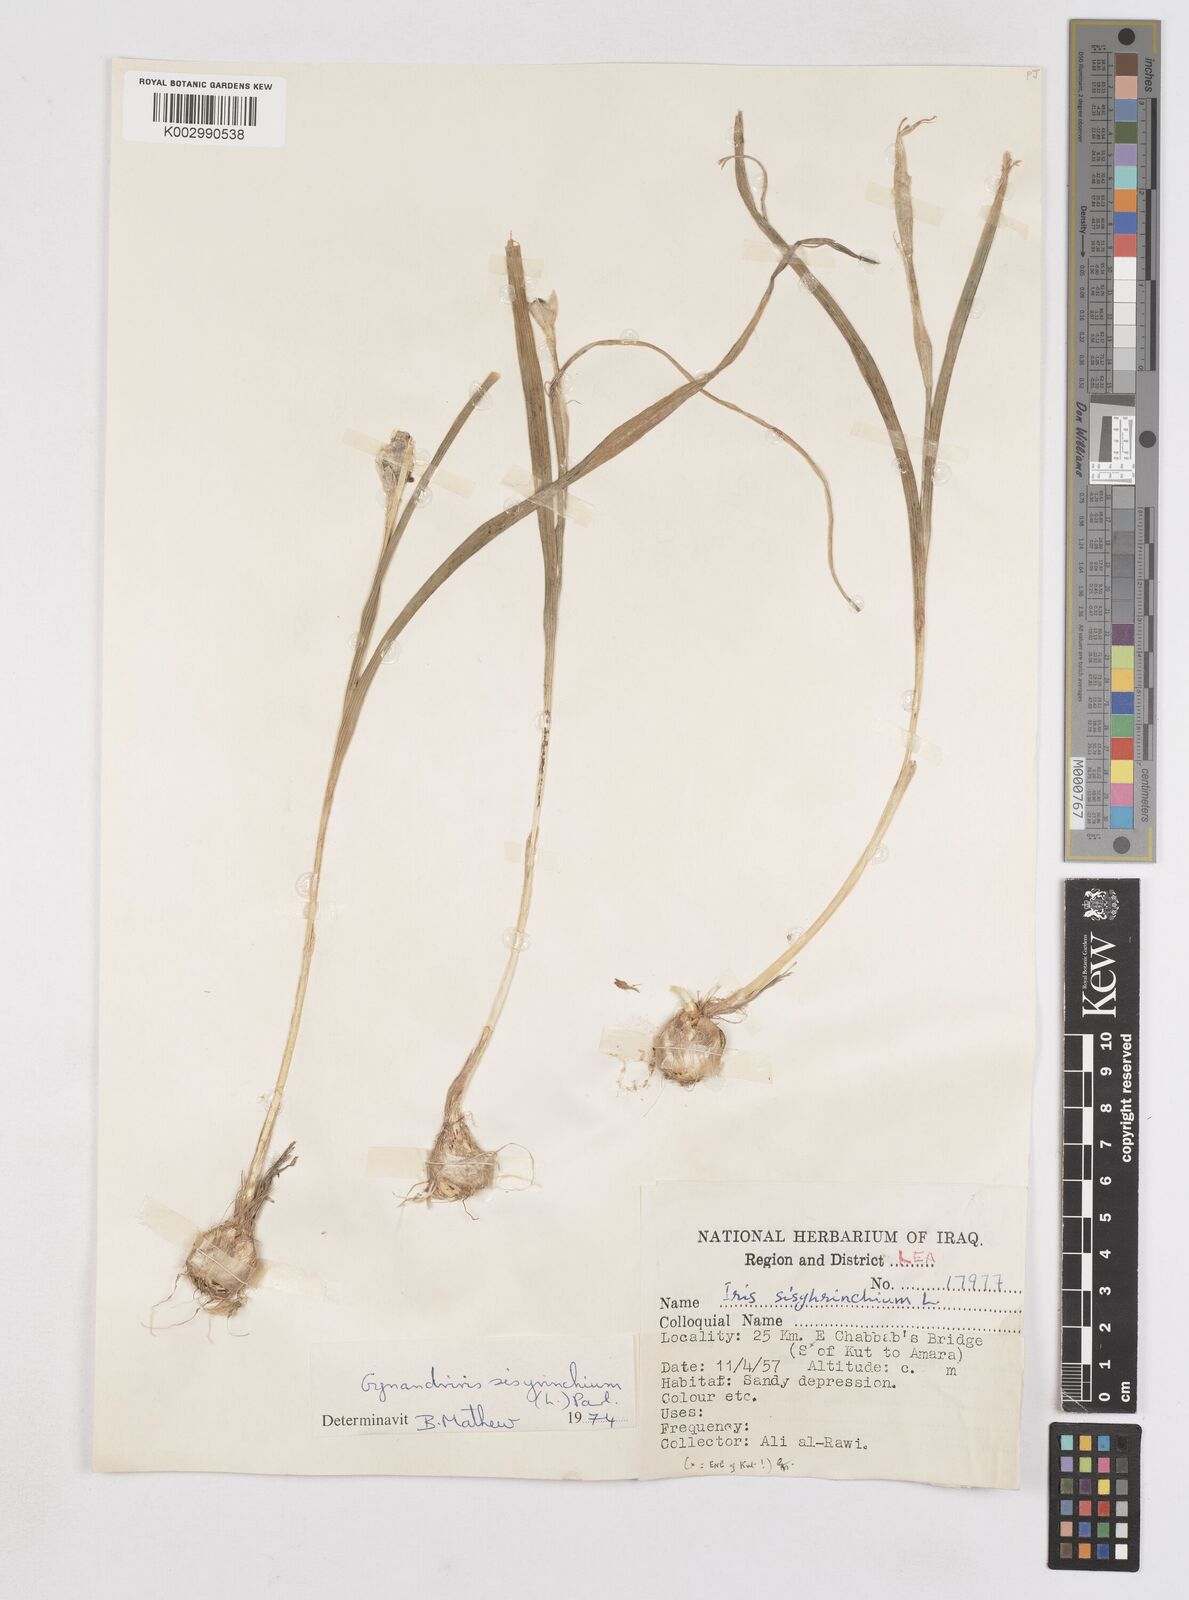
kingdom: Plantae
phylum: Tracheophyta
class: Liliopsida
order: Asparagales
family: Iridaceae
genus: Moraea
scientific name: Moraea sisyrinchium
